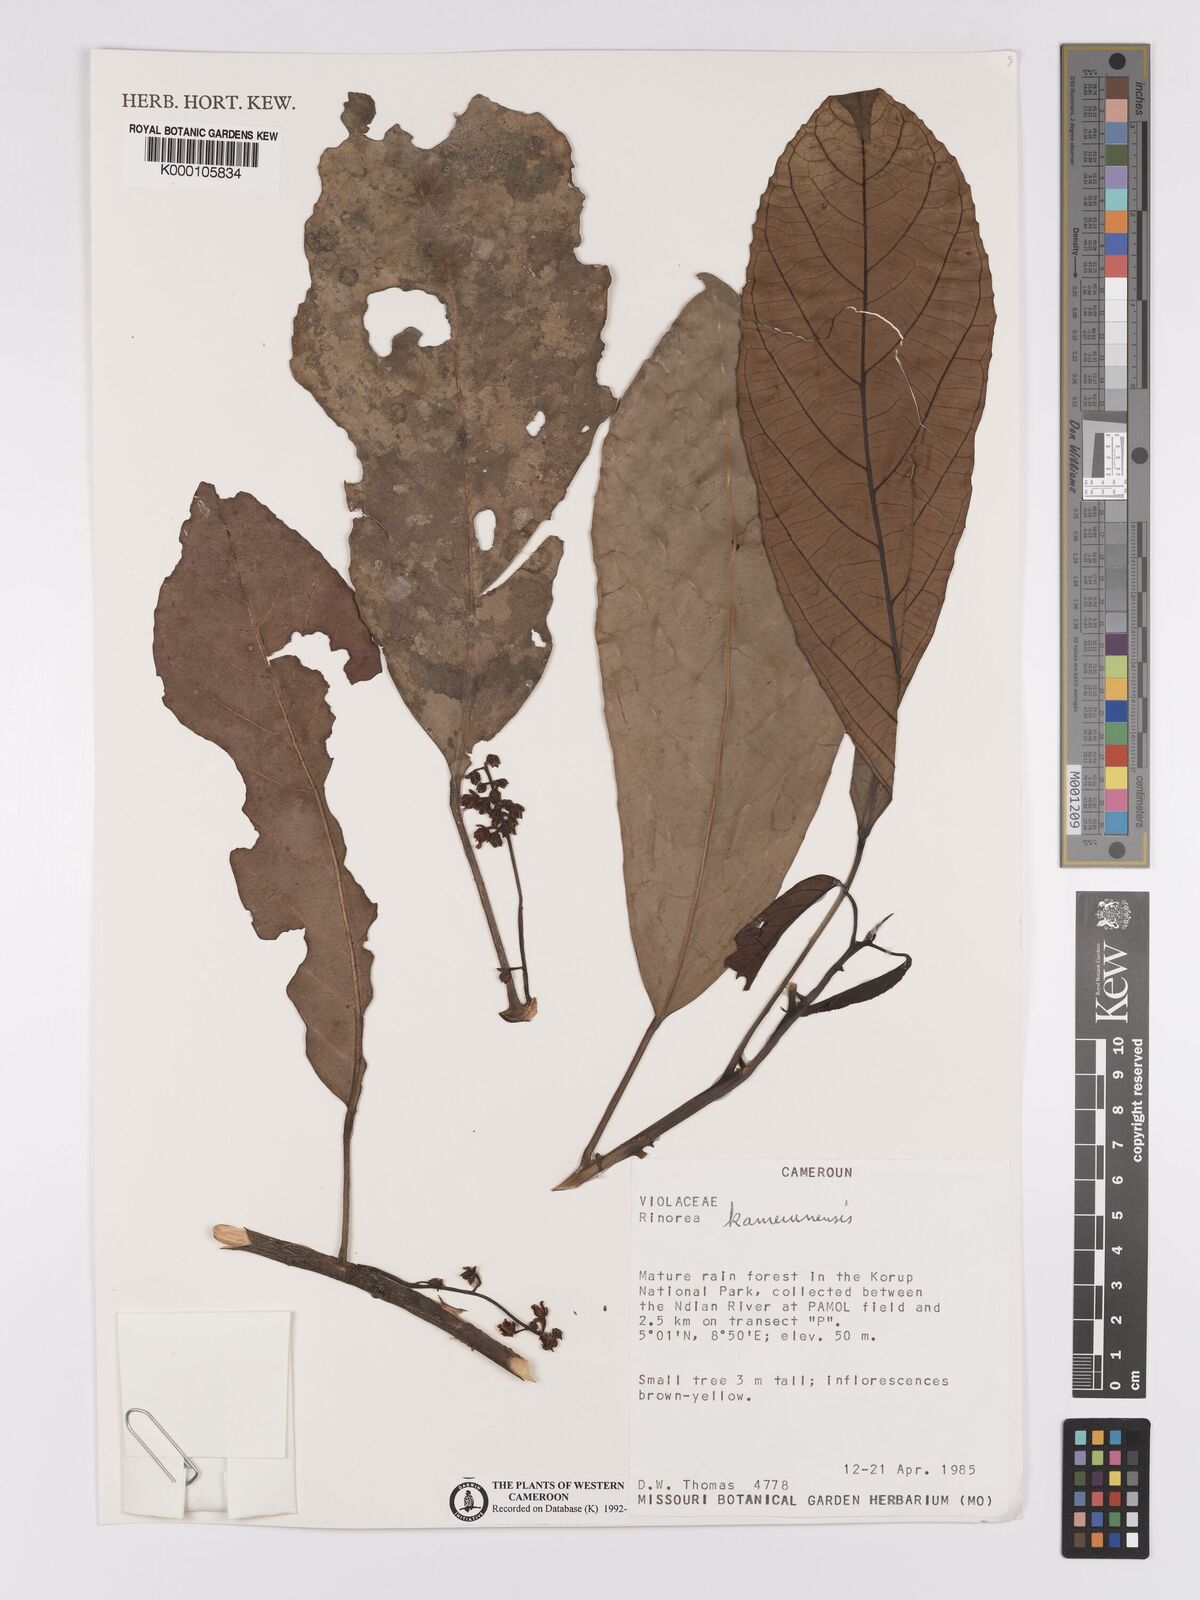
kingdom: Plantae
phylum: Tracheophyta
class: Magnoliopsida
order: Malpighiales
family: Violaceae
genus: Rinorea
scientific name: Rinorea kamerunensis
